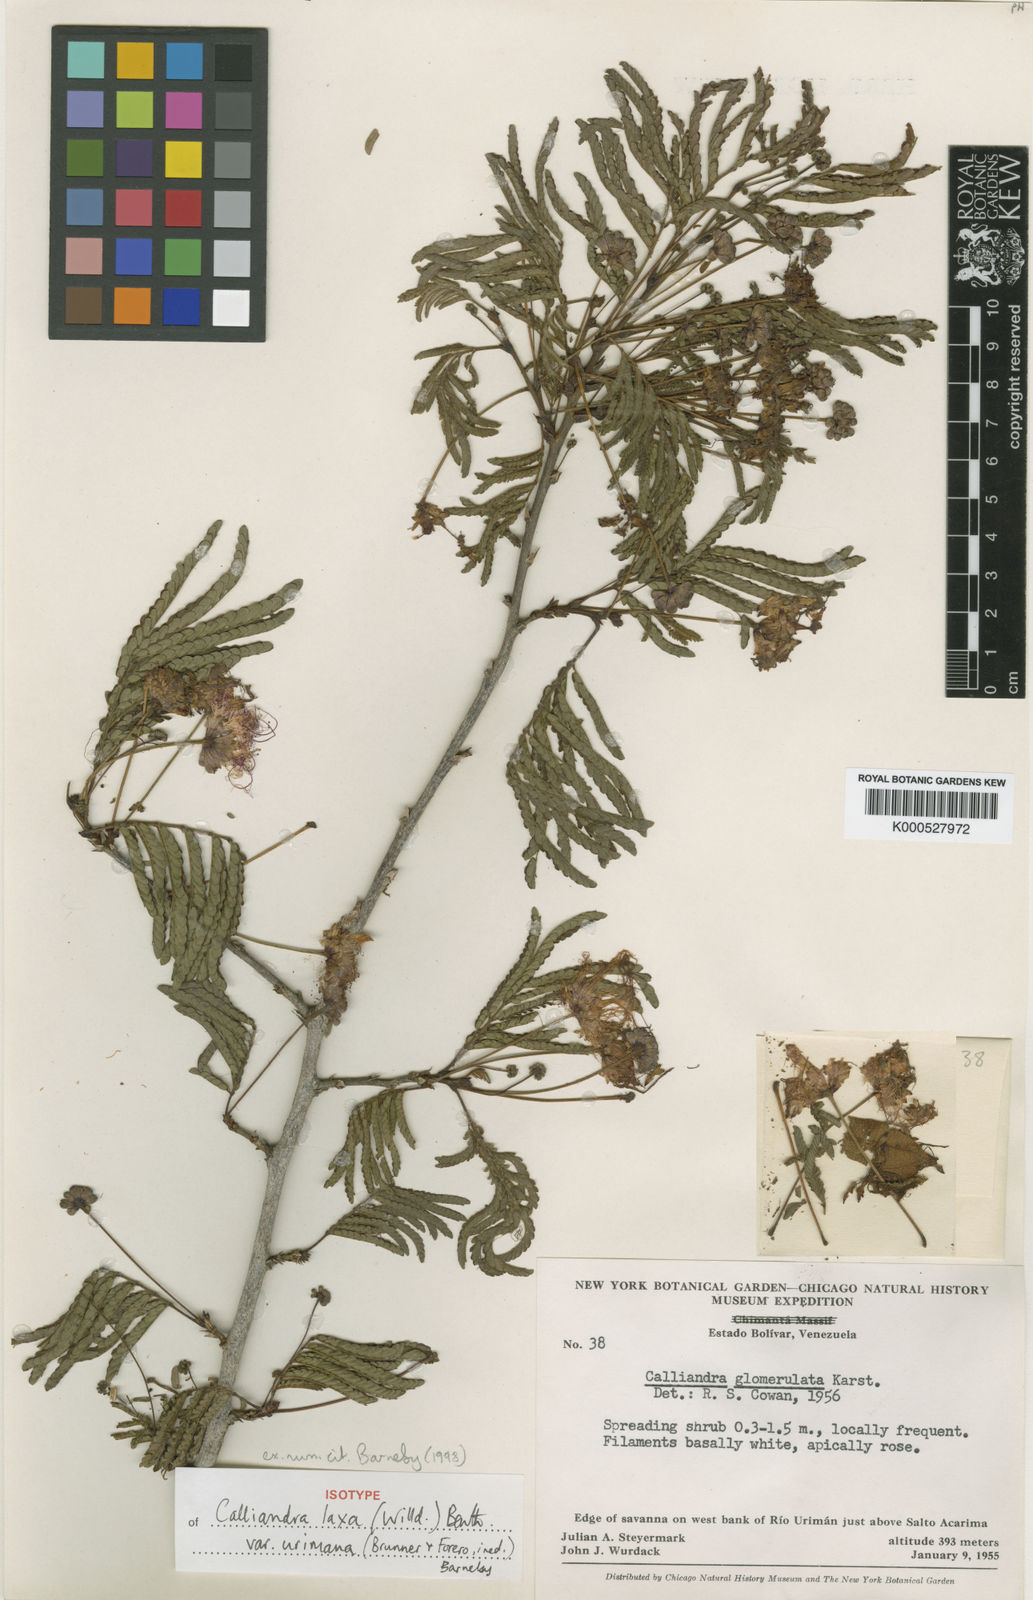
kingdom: Plantae
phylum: Tracheophyta
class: Magnoliopsida
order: Fabales
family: Fabaceae
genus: Calliandra
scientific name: Calliandra laxa
